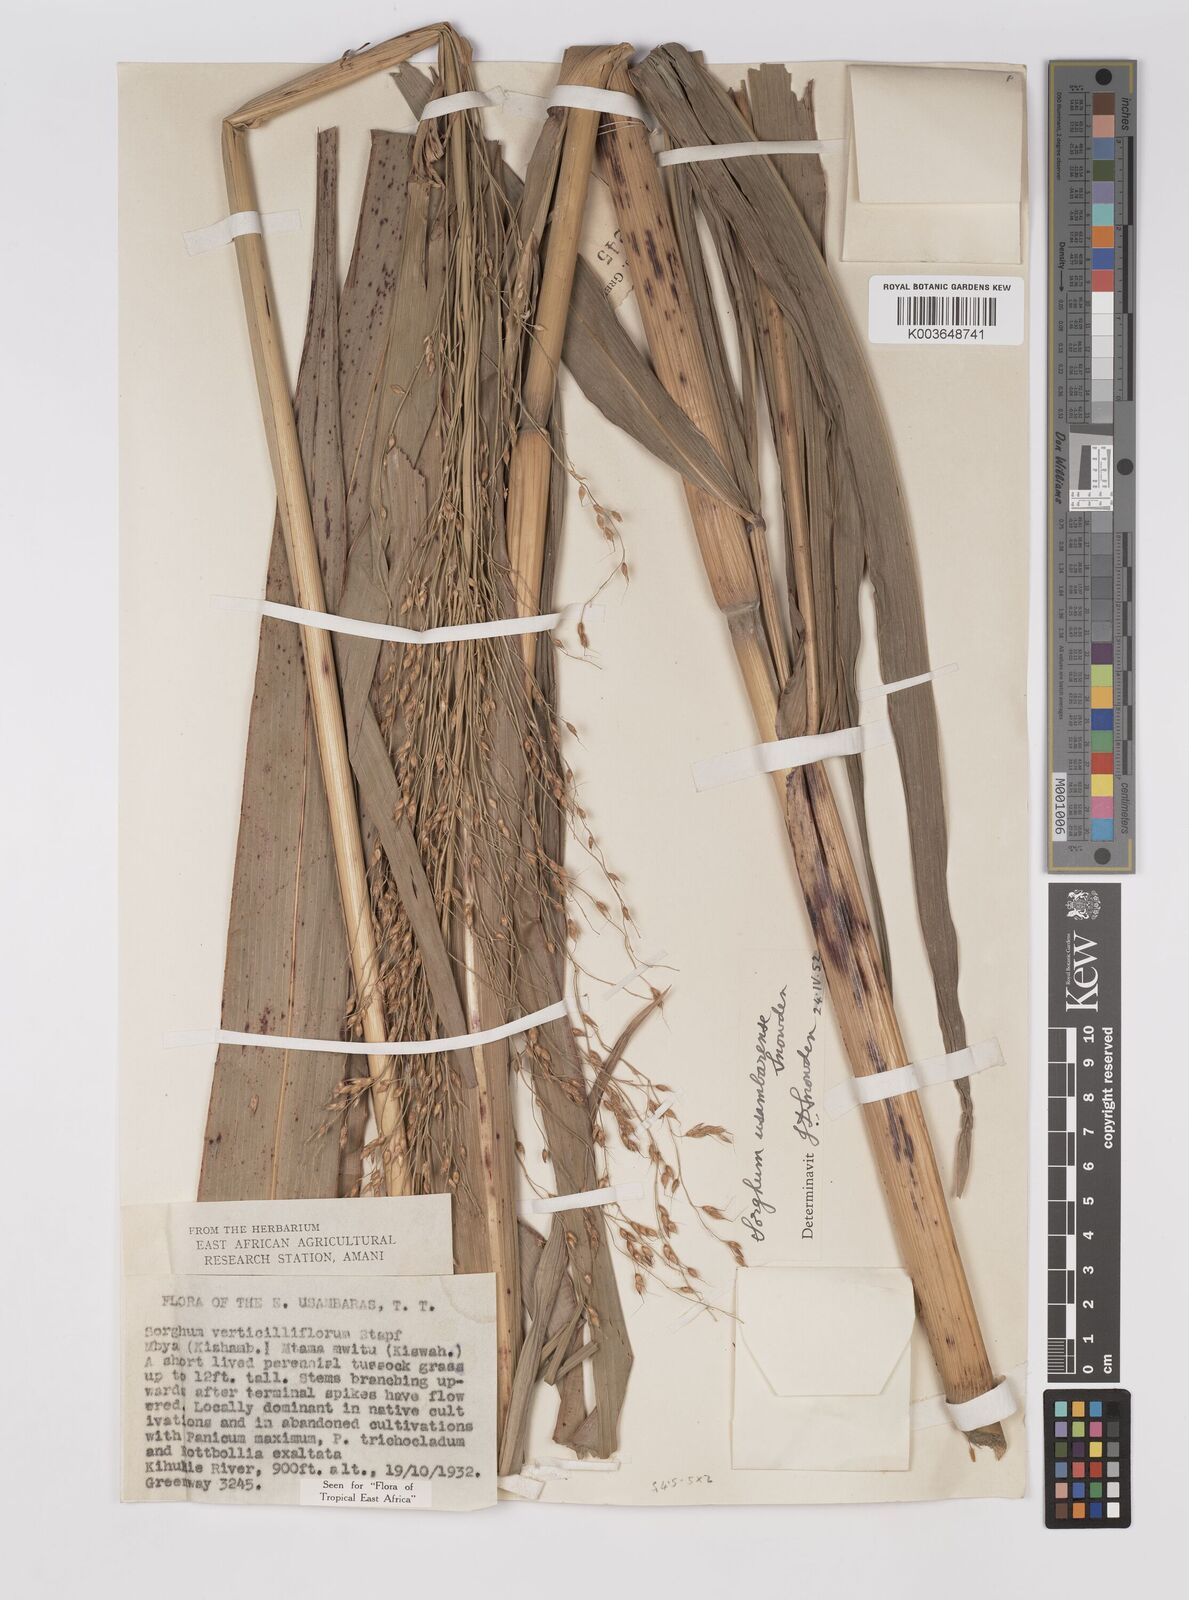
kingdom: Plantae
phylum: Tracheophyta
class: Liliopsida
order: Poales
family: Poaceae
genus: Sorghum
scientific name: Sorghum arundinaceum
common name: Sorghum
